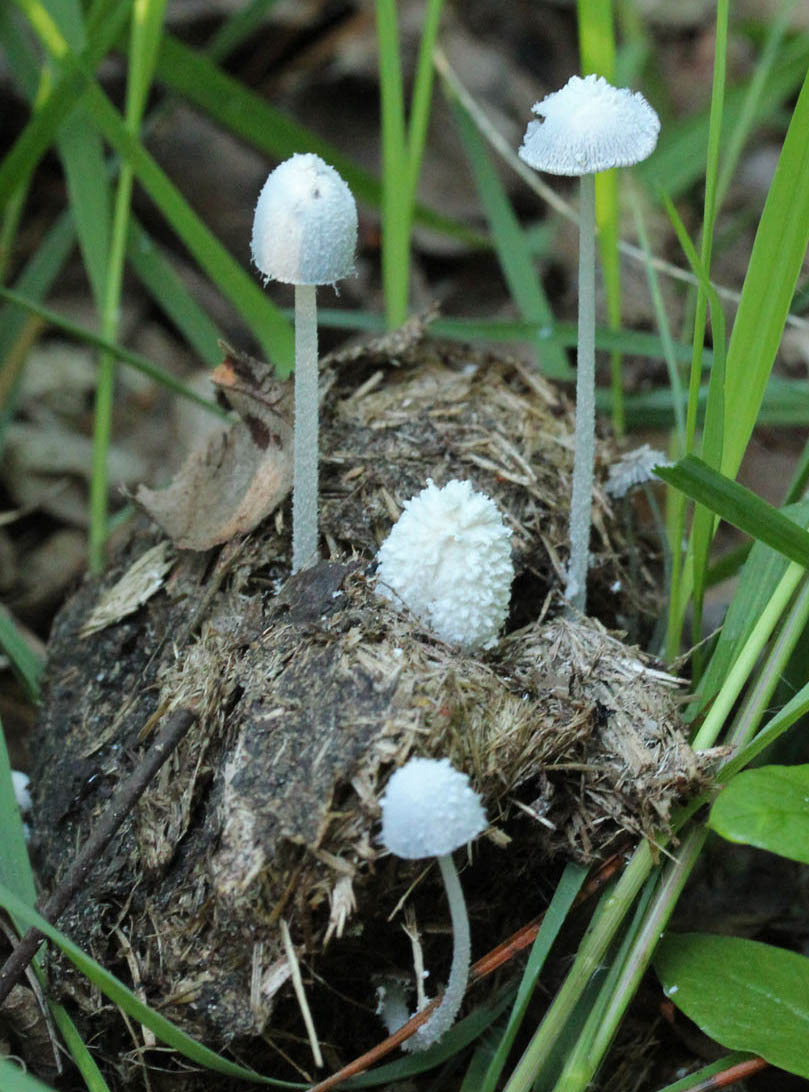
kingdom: Fungi
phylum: Basidiomycota
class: Agaricomycetes
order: Agaricales
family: Psathyrellaceae
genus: Coprinopsis
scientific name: Coprinopsis nivea
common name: snehvid blækhat
